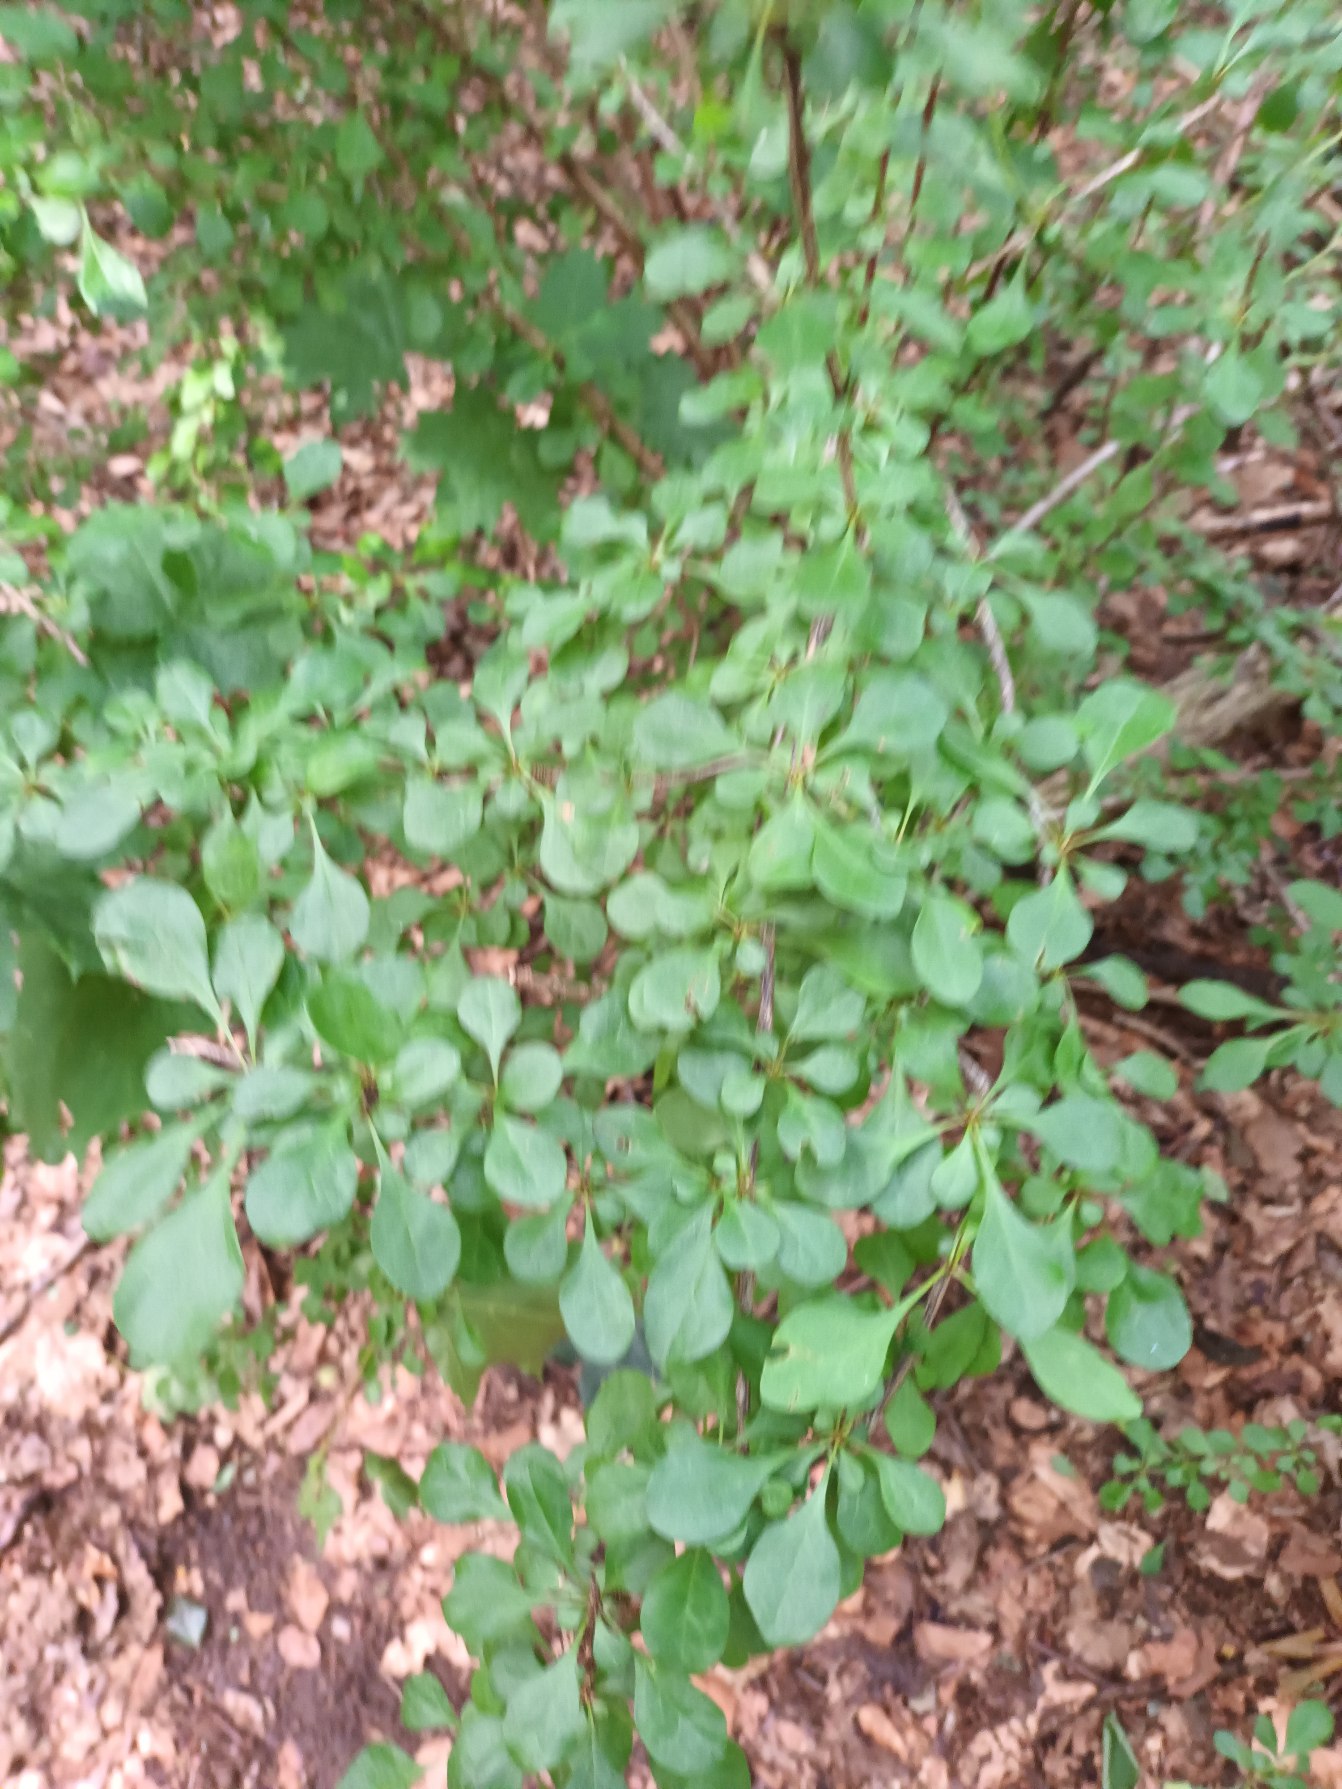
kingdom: Plantae
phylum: Tracheophyta
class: Magnoliopsida
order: Ranunculales
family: Berberidaceae
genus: Berberis
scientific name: Berberis thunbergii
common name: Hæk-berberis
